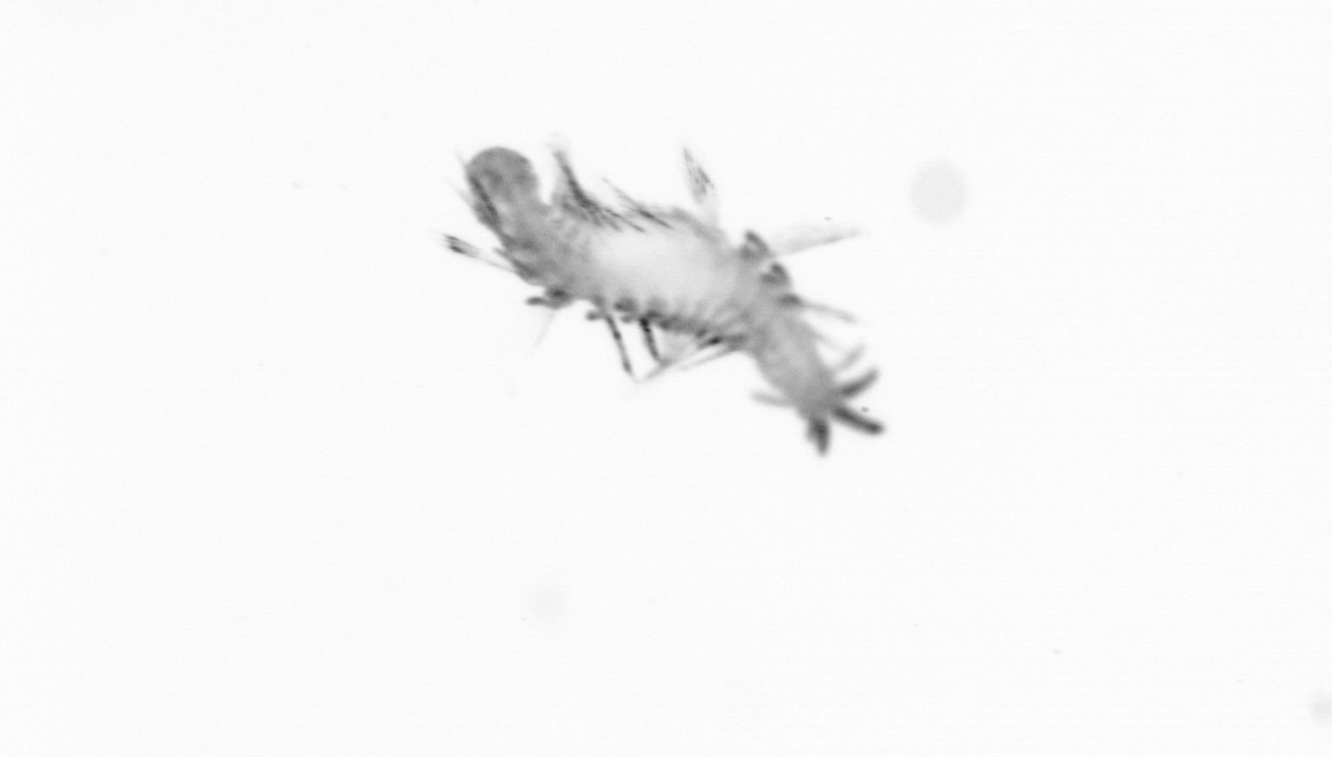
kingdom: Animalia
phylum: Annelida
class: Polychaeta
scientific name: Polychaeta
